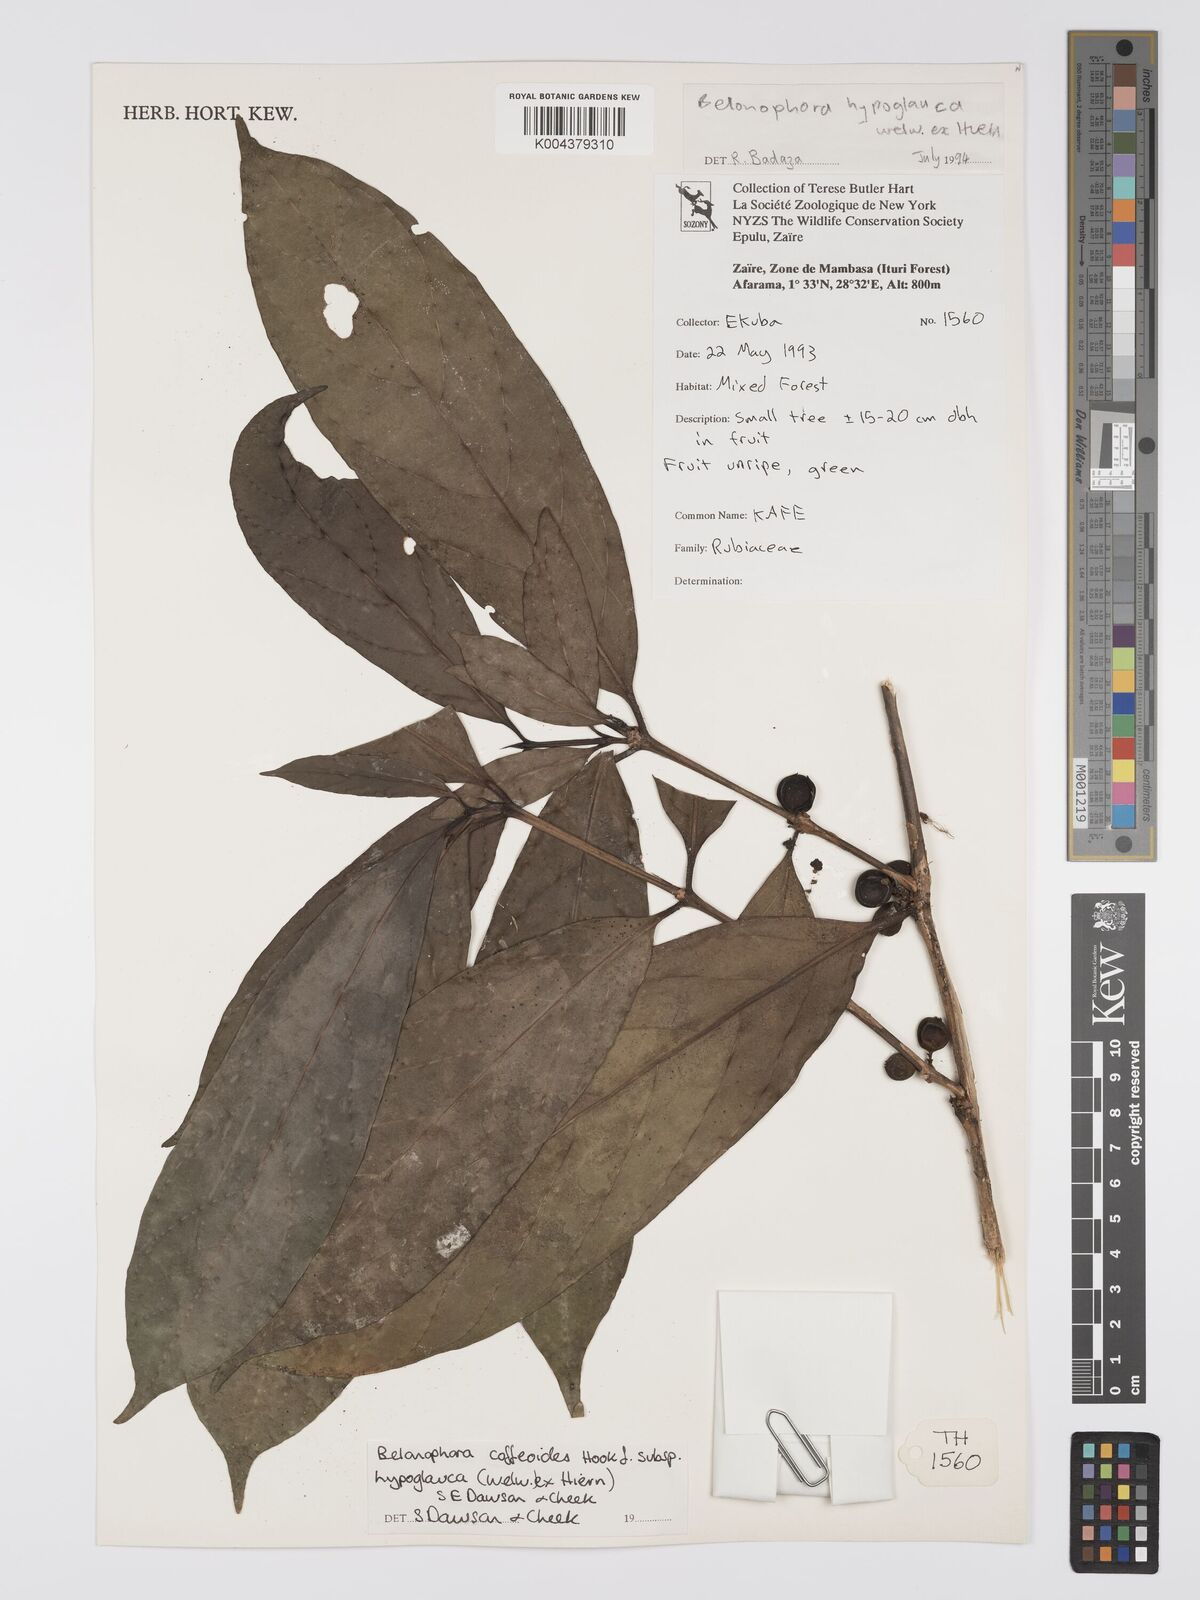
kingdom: Plantae
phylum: Tracheophyta
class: Magnoliopsida
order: Gentianales
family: Rubiaceae
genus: Belonophora
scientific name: Belonophora coffeoides
